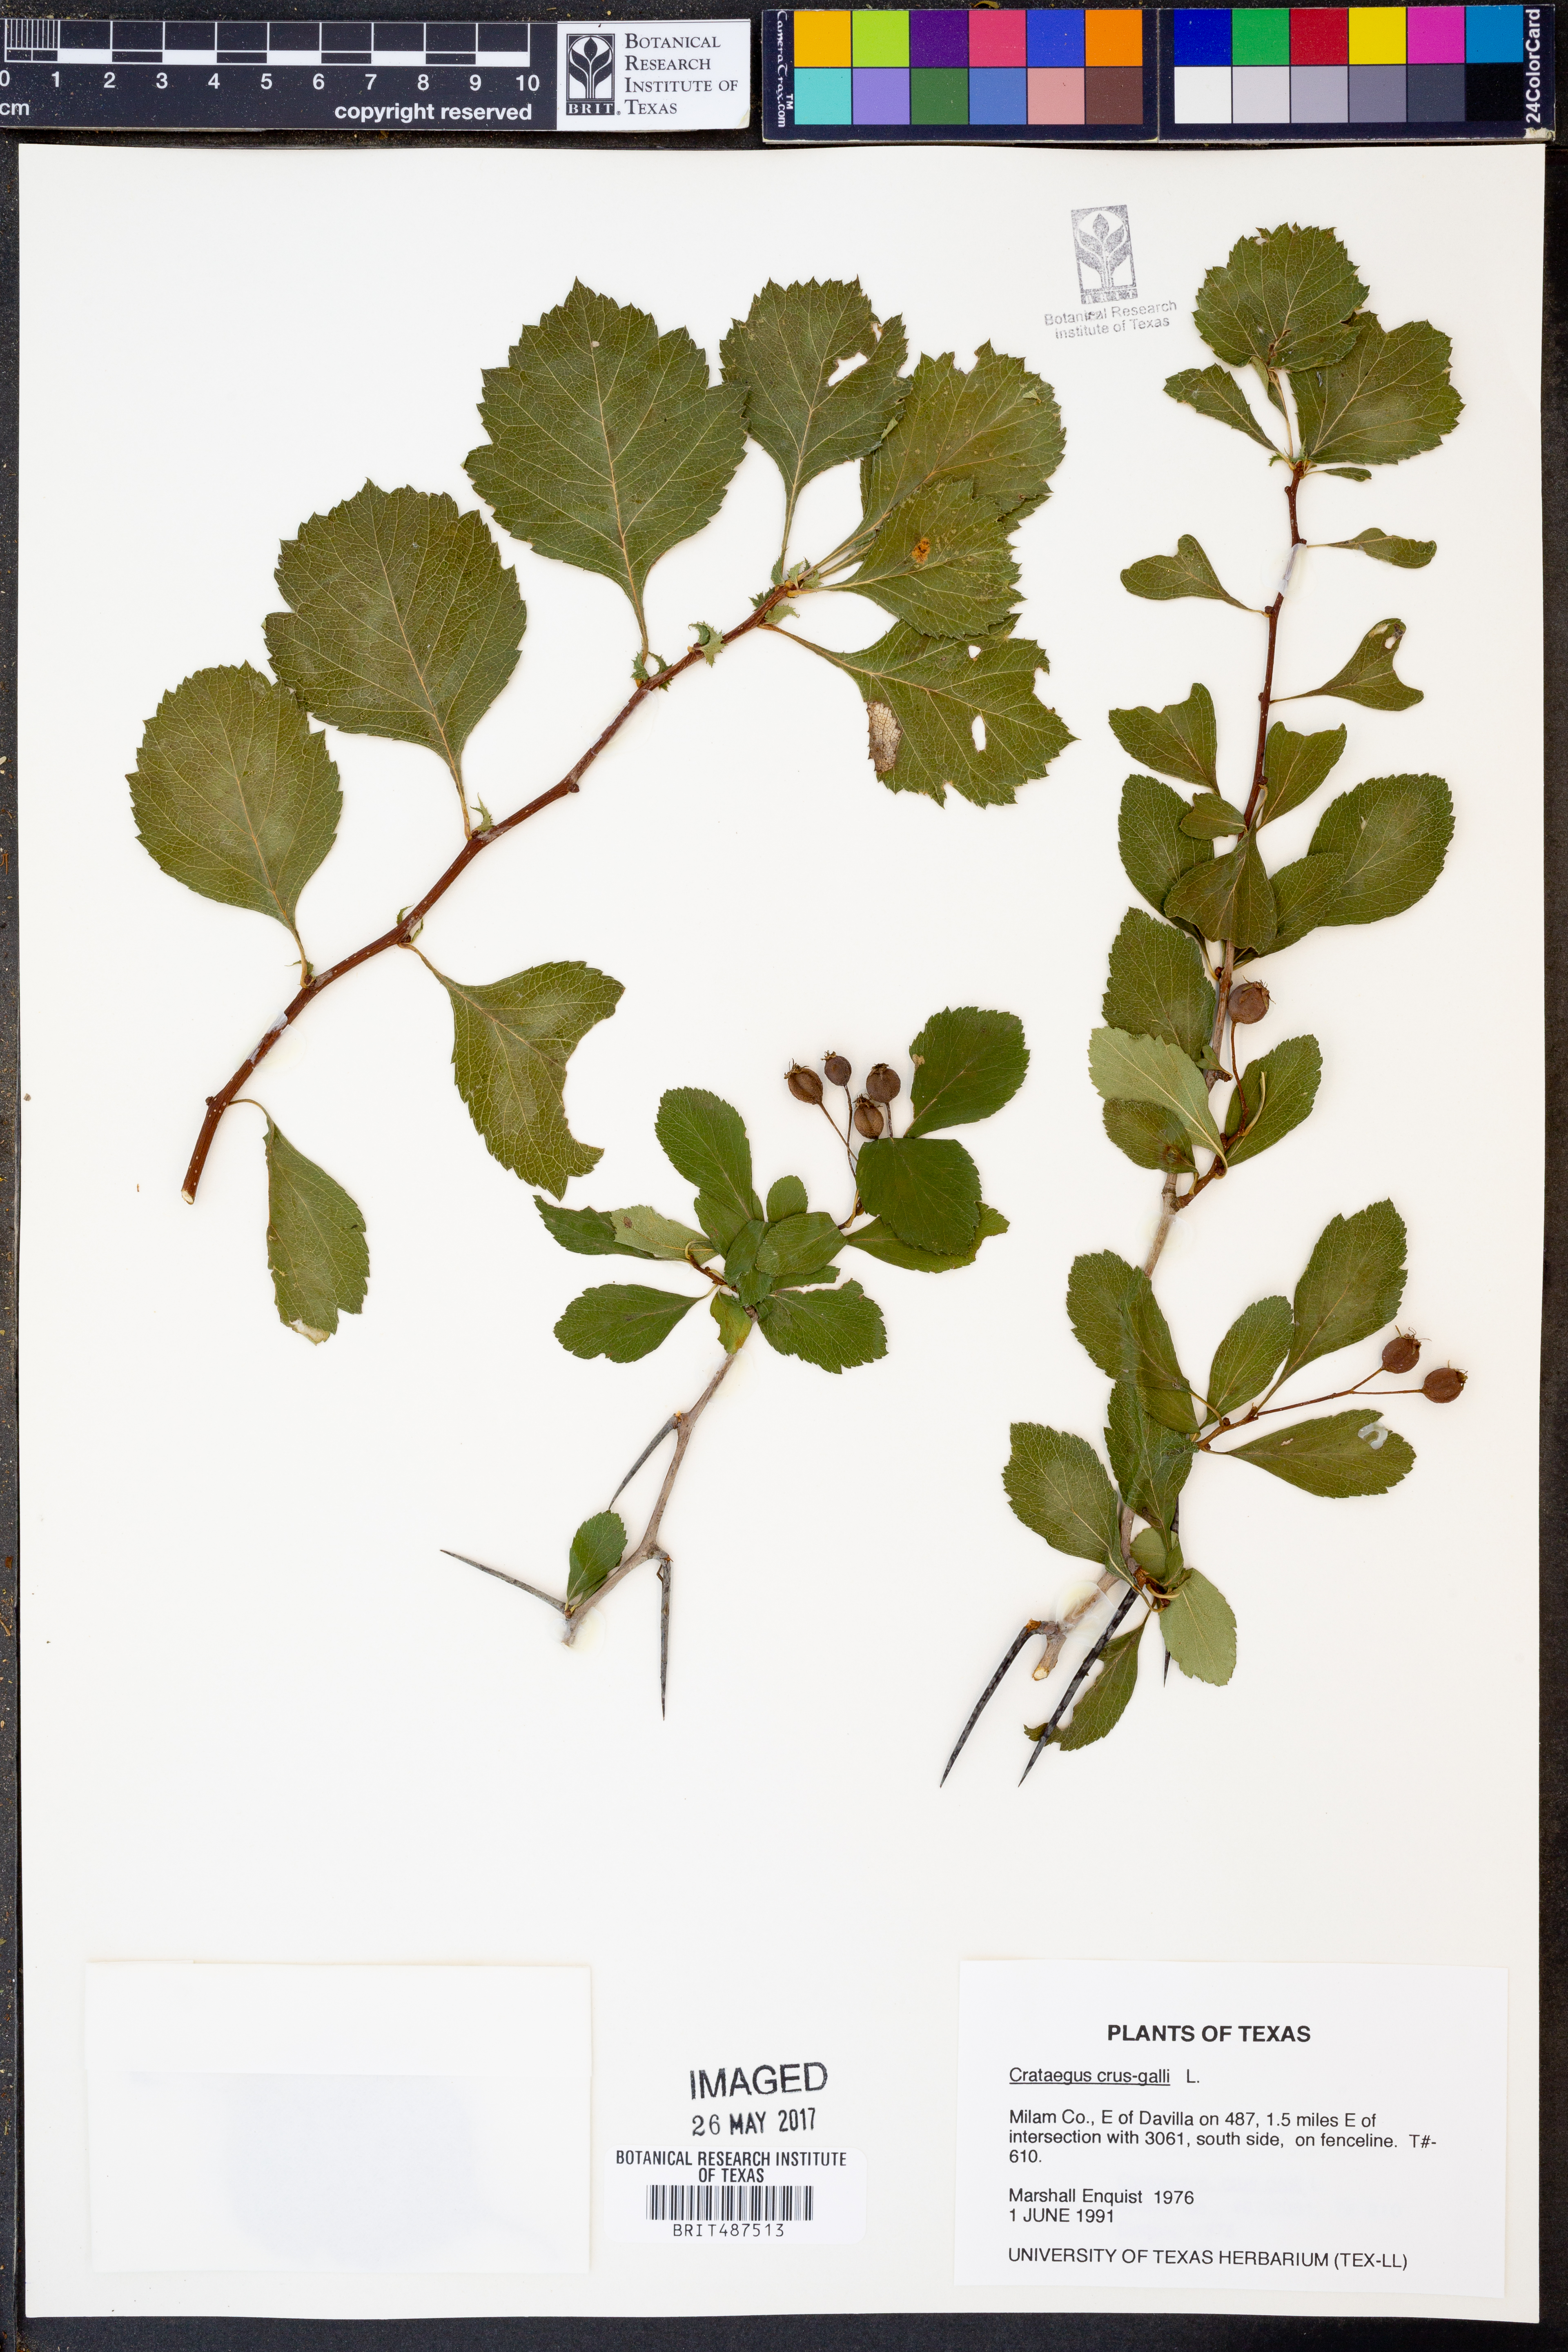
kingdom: Plantae
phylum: Tracheophyta
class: Magnoliopsida
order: Rosales
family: Rosaceae
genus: Crataegus
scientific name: Crataegus crus-galli
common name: Cockspurthorn
